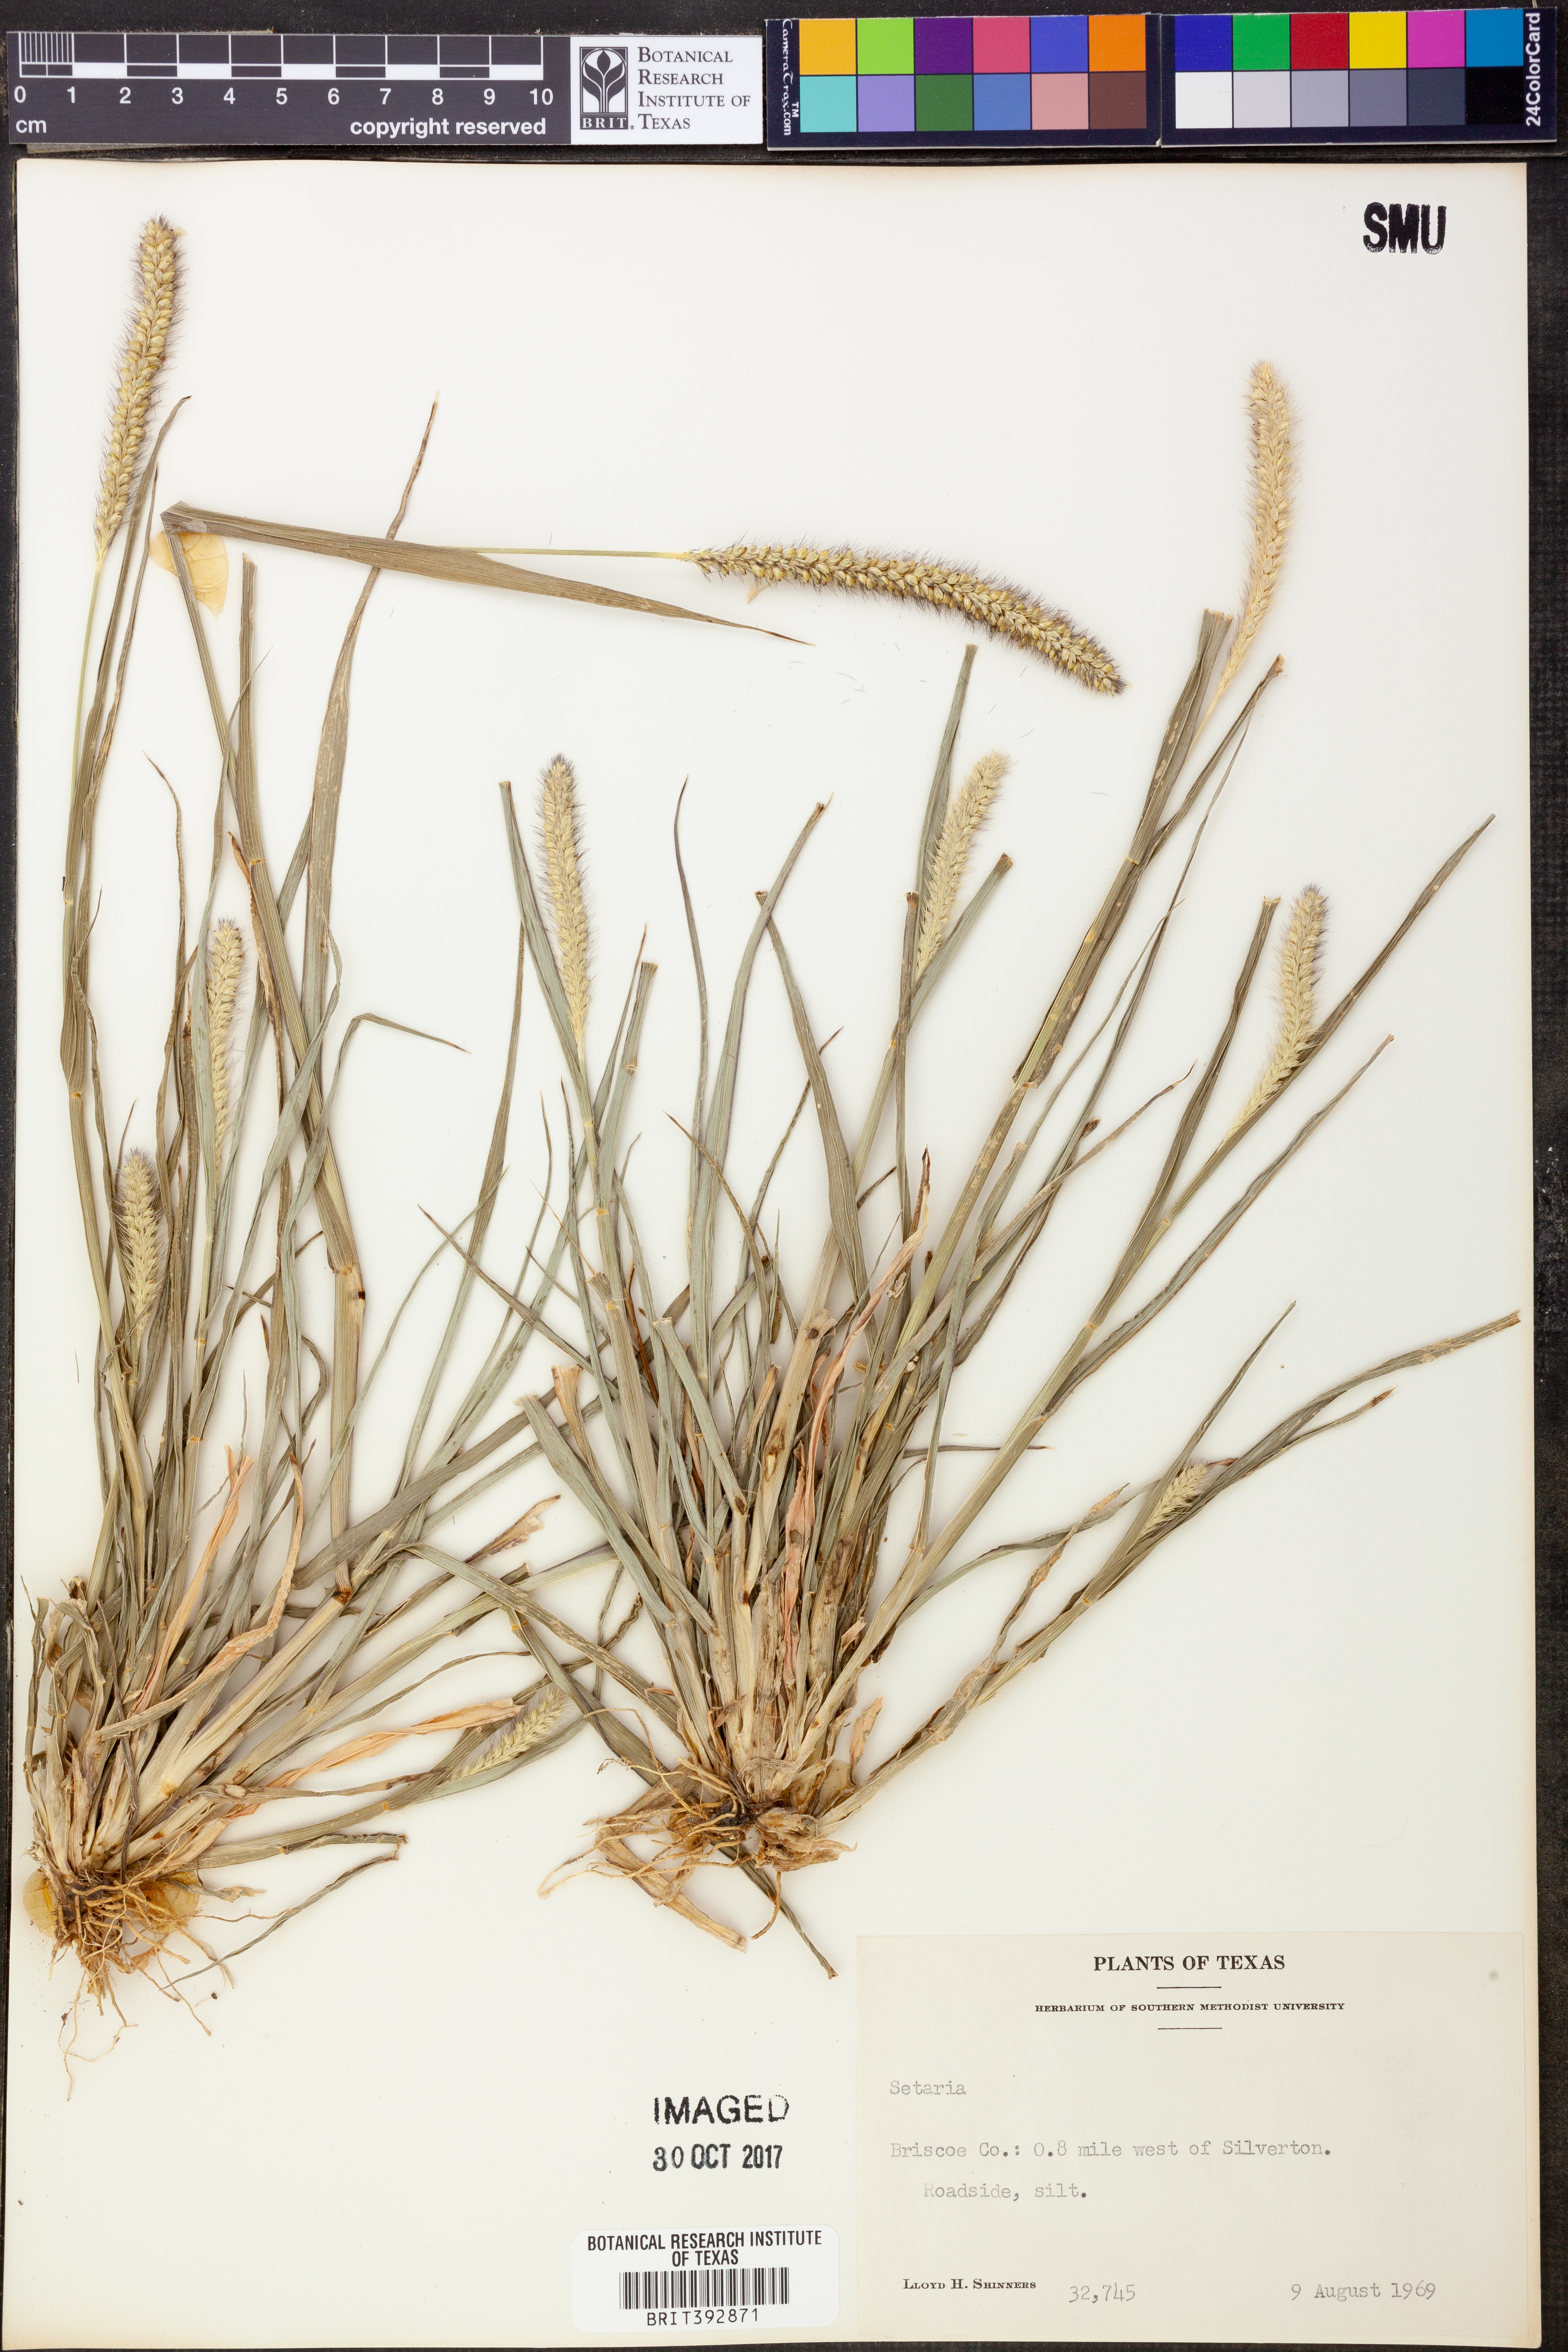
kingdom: Plantae
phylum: Tracheophyta
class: Liliopsida
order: Poales
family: Poaceae
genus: Setaria
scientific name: Setaria
